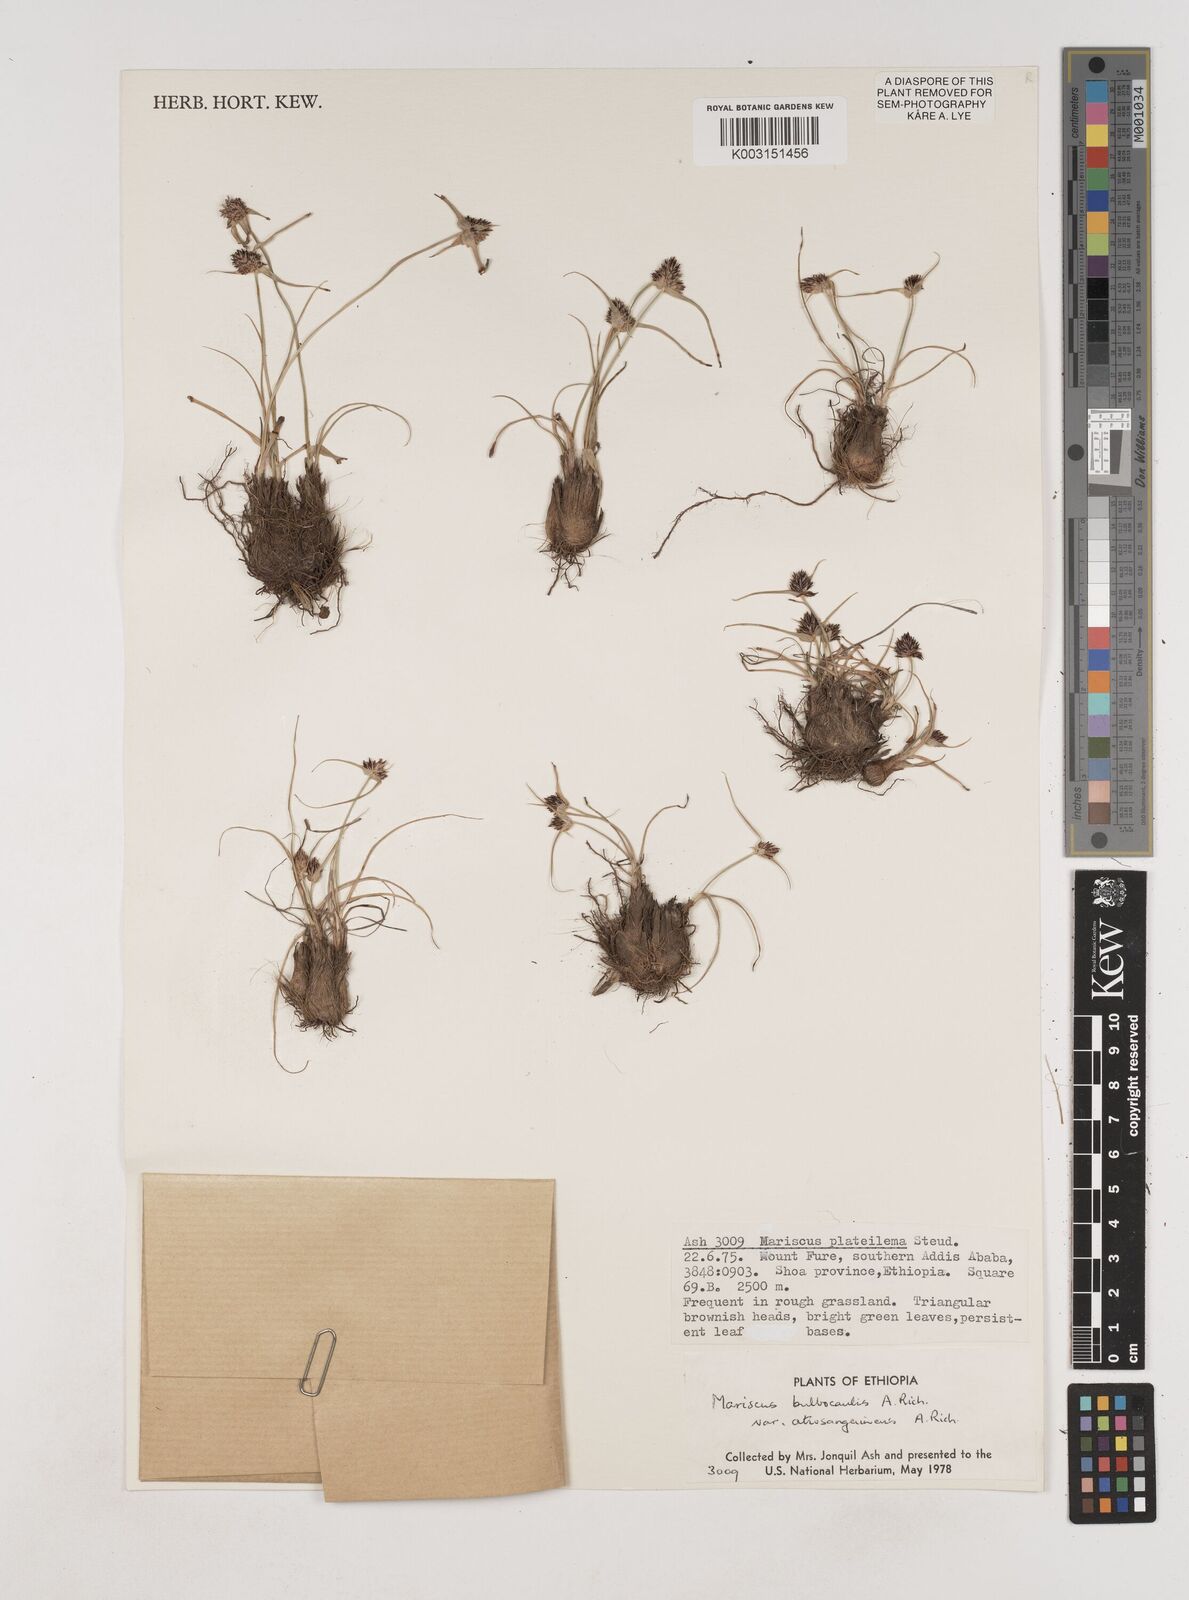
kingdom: Plantae
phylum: Tracheophyta
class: Liliopsida
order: Poales
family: Cyperaceae
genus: Cyperus
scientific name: Cyperus plateilema
